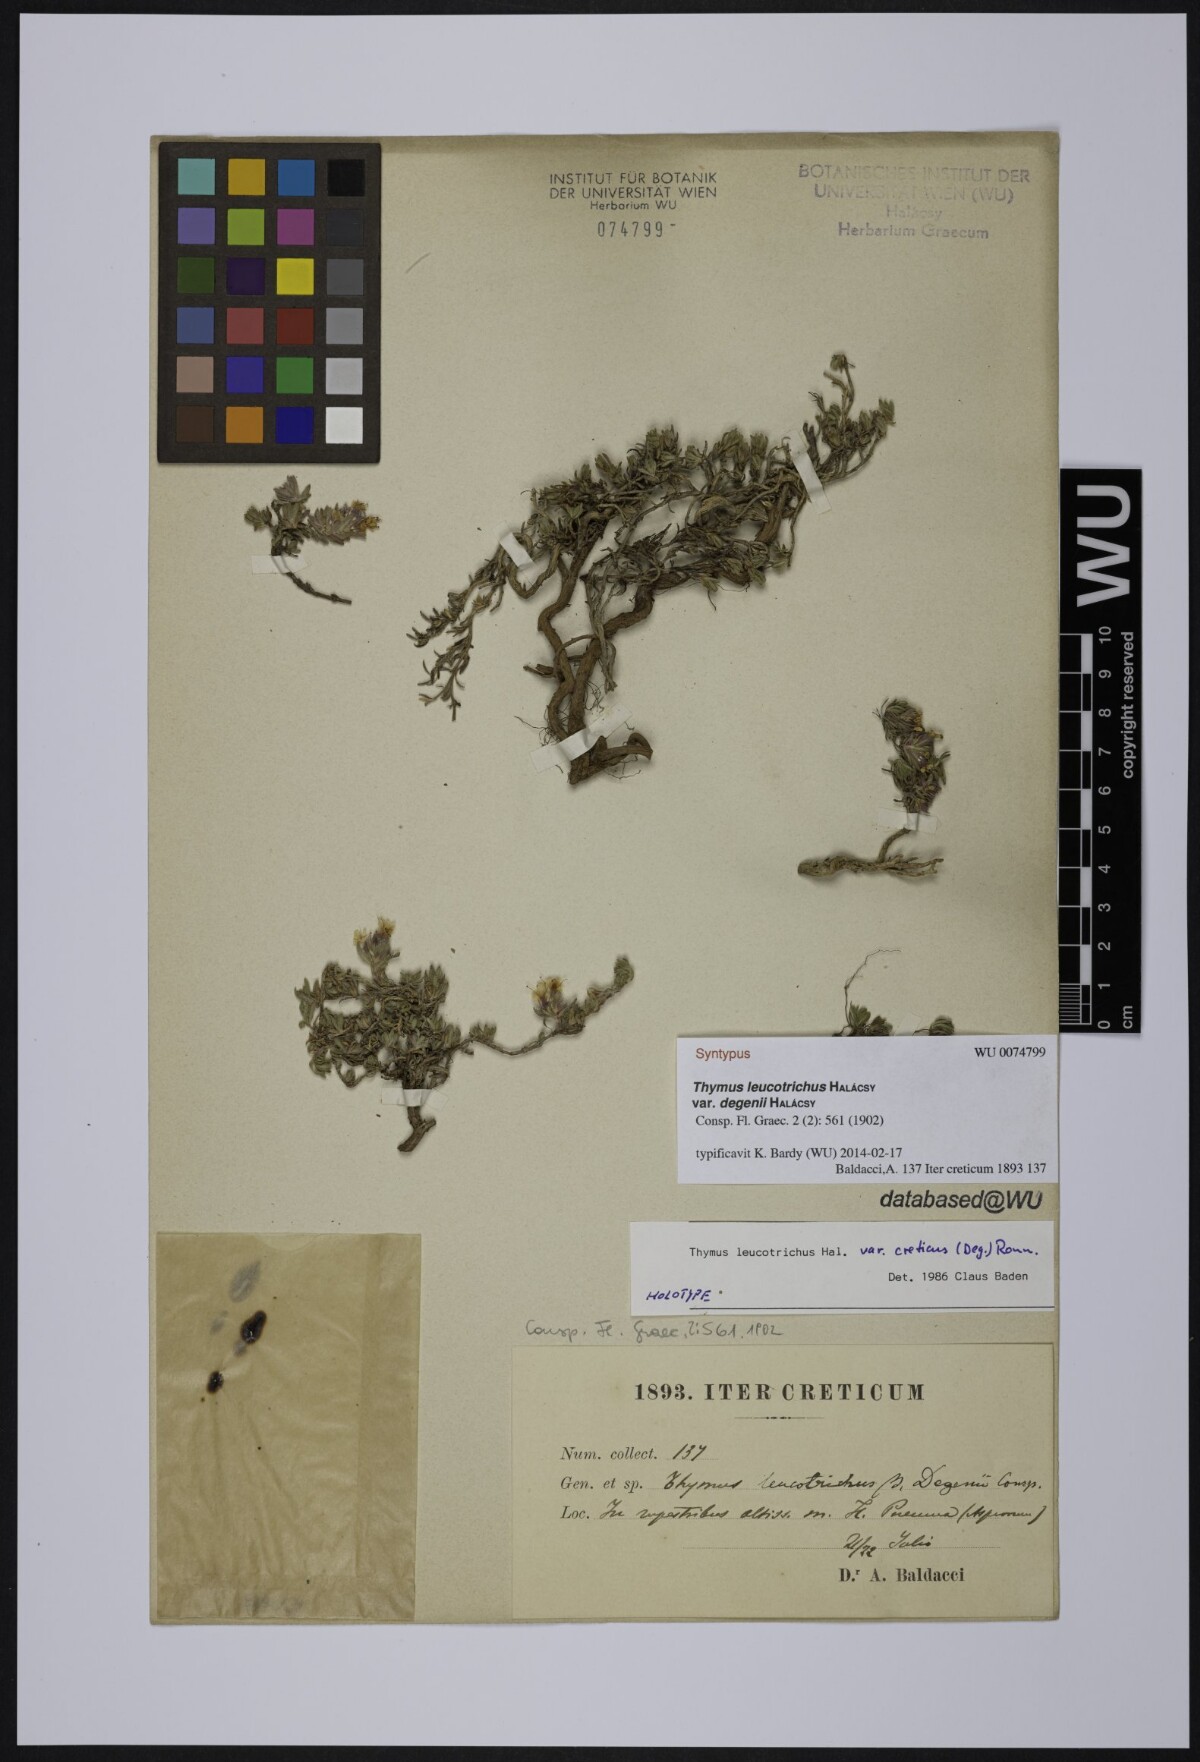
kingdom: Plantae
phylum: Tracheophyta
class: Magnoliopsida
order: Lamiales
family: Lamiaceae
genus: Thymus
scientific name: Thymus leucotrichus
